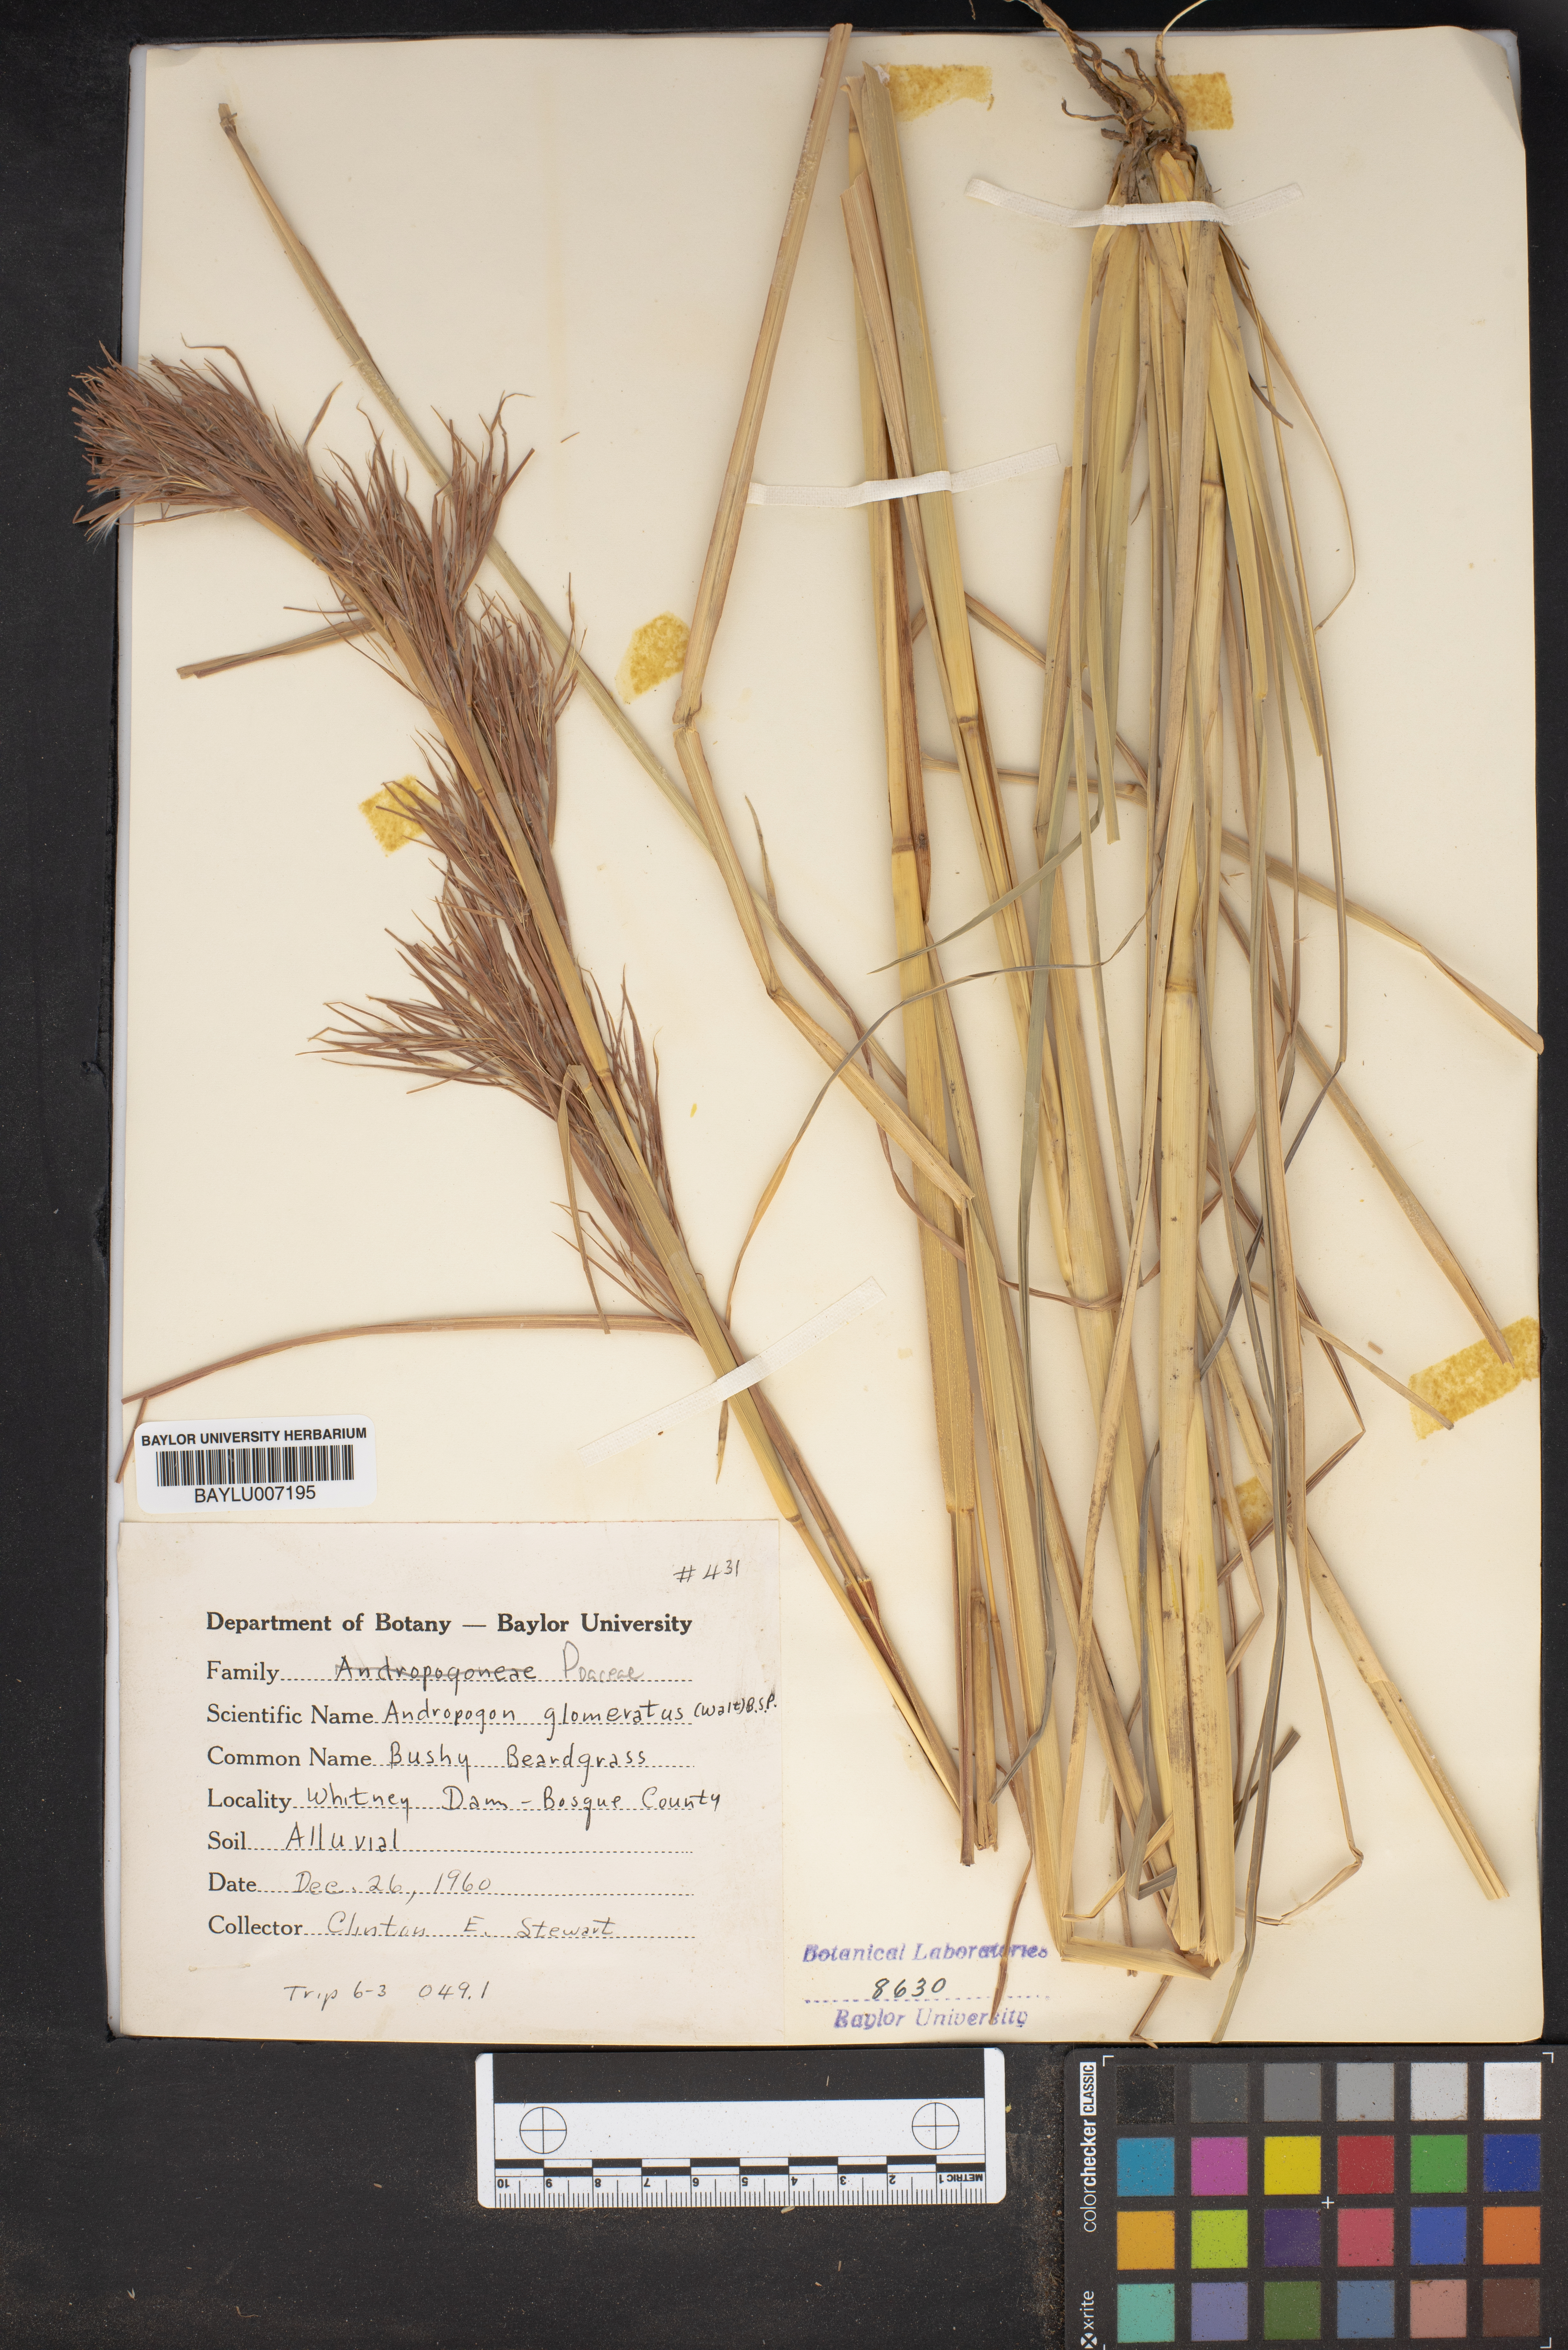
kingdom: Plantae
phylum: Tracheophyta
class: Liliopsida
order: Poales
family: Poaceae
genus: Andropogon
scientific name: Andropogon glomeratus
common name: Bushy beard grass
